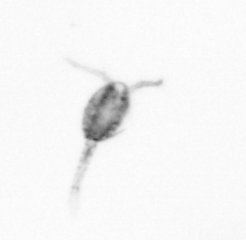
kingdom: Animalia
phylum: Arthropoda
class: Copepoda
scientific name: Copepoda
